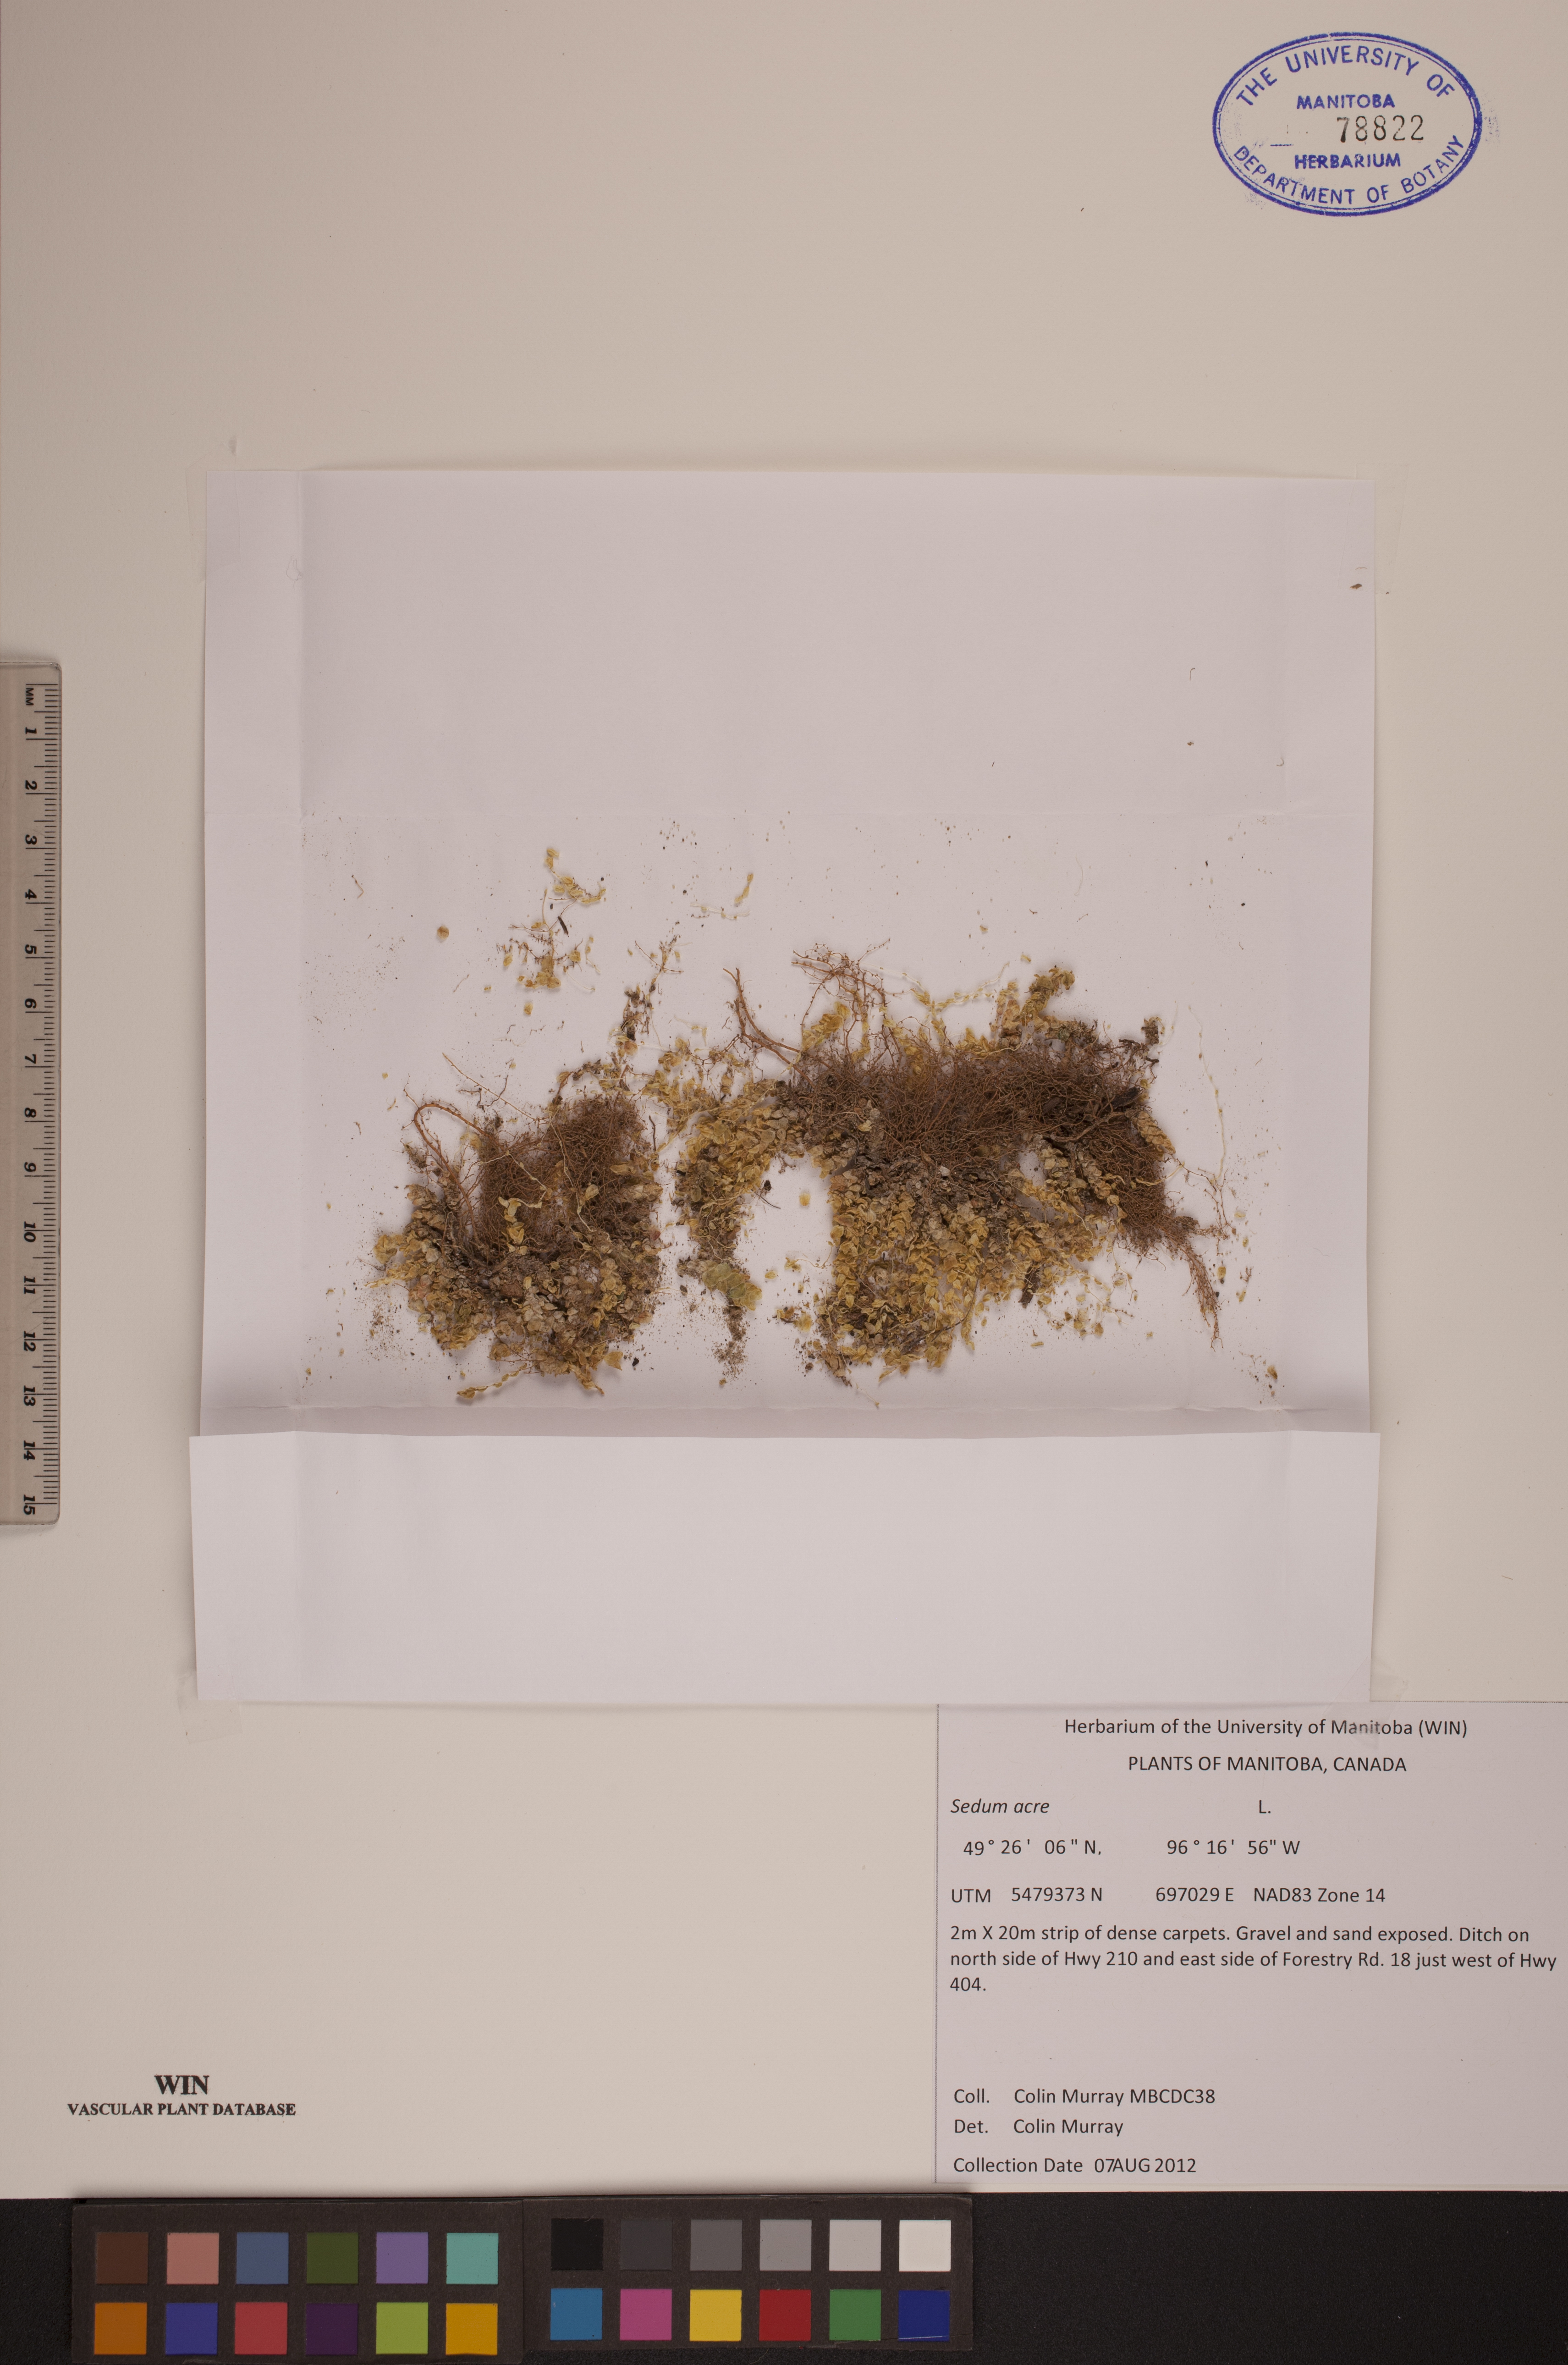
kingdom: Plantae
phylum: Tracheophyta
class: Magnoliopsida
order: Saxifragales
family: Crassulaceae
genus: Sedum
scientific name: Sedum acre
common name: Biting stonecrop
